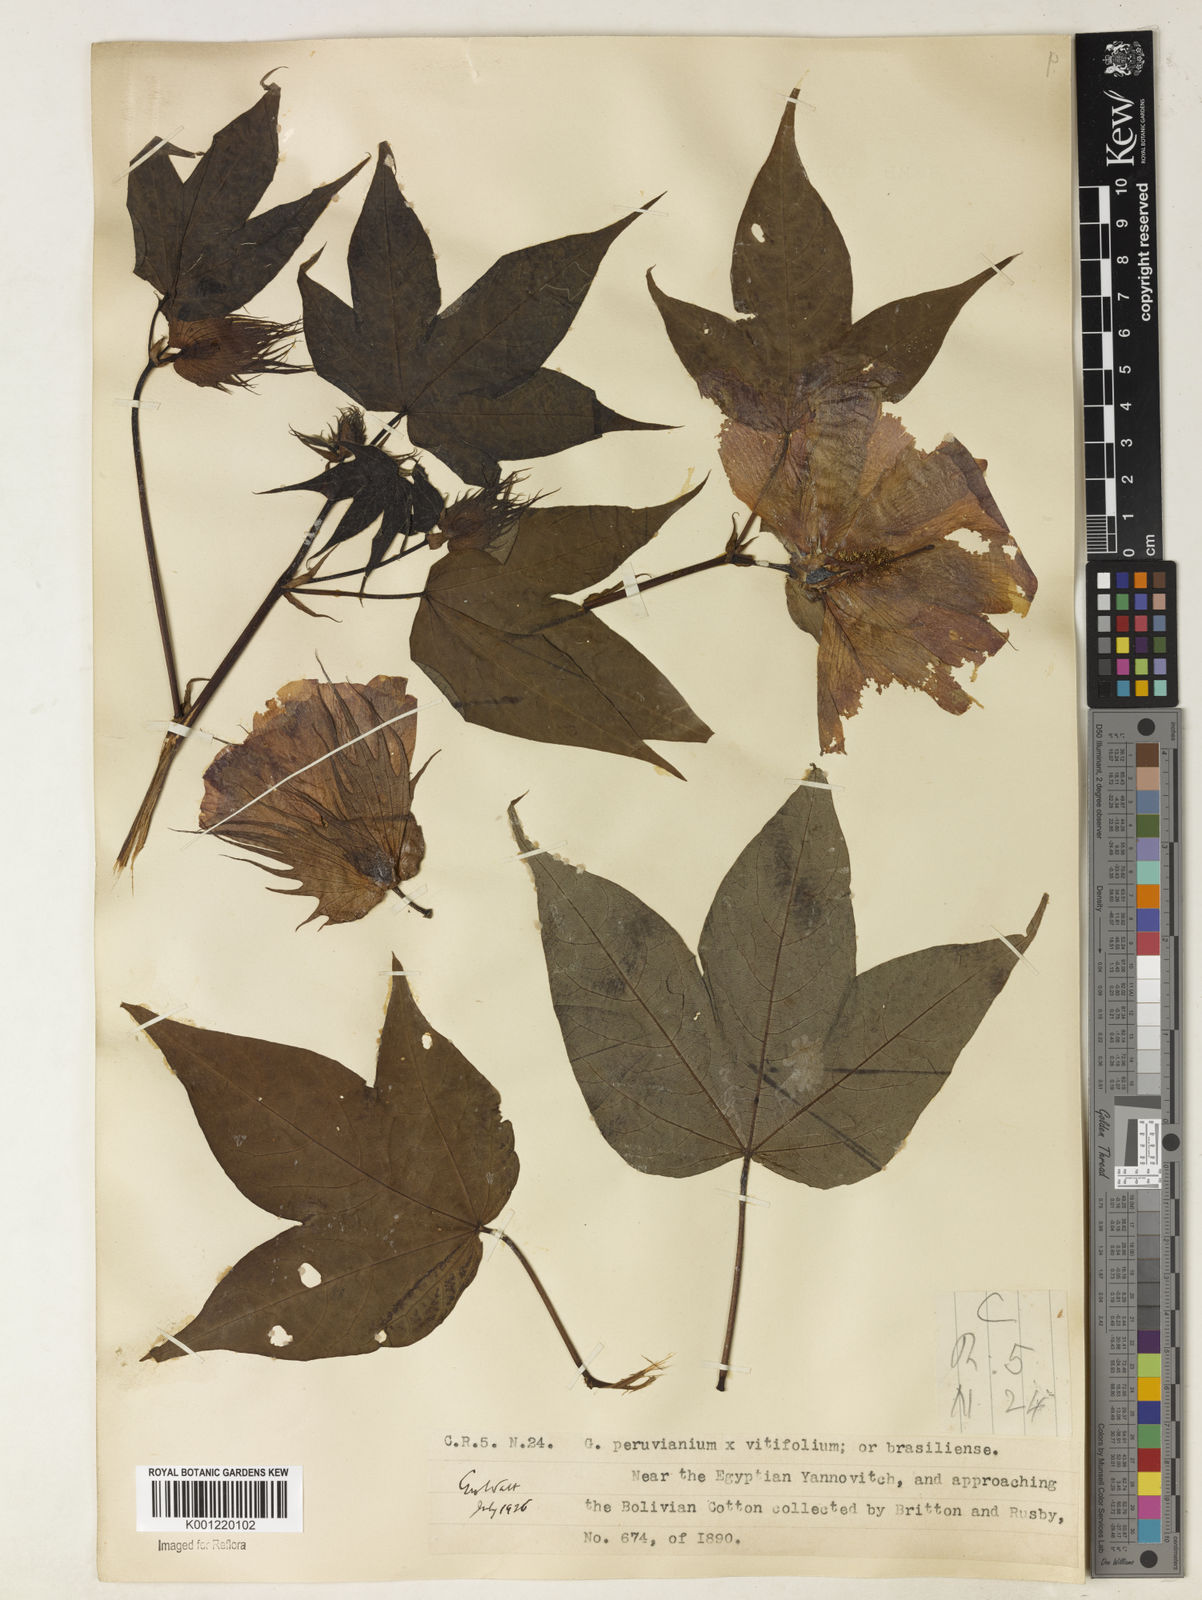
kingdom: Plantae
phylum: Tracheophyta
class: Magnoliopsida
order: Malvales
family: Malvaceae
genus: Gossypium
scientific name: Gossypium
